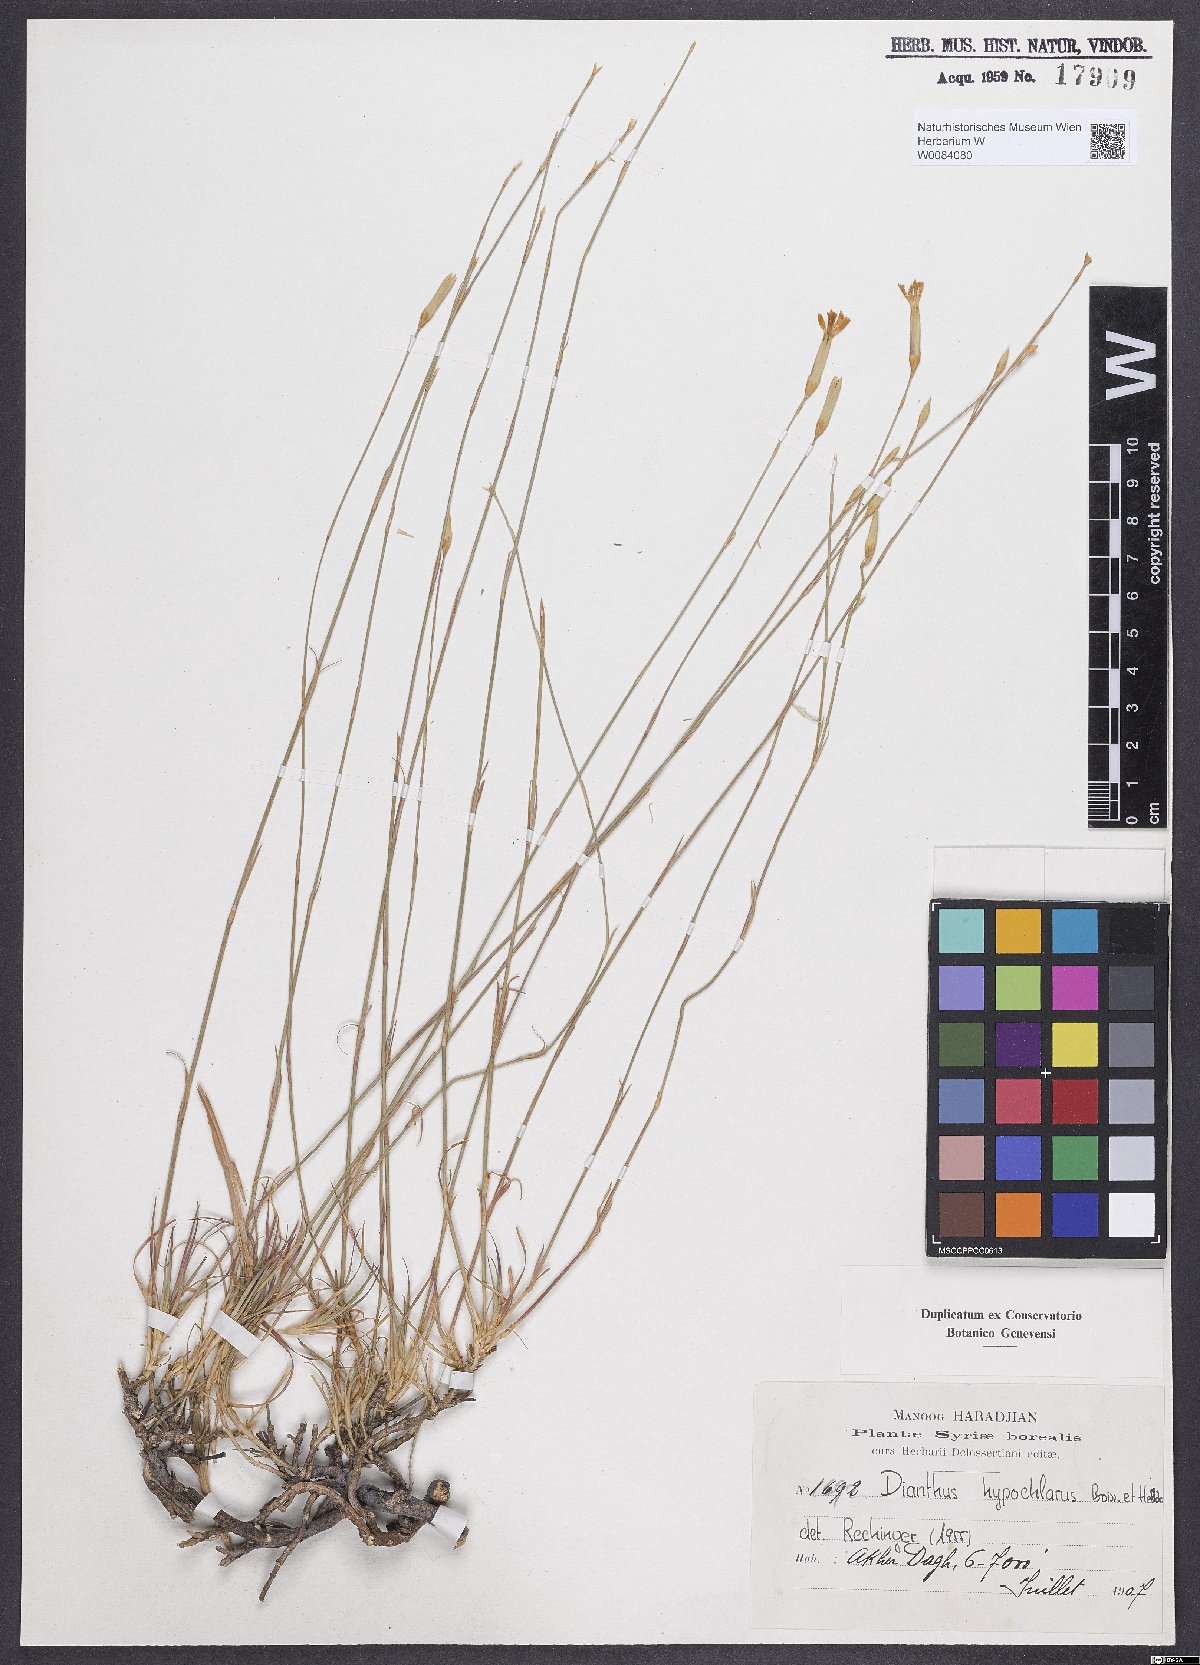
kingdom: Plantae
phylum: Tracheophyta
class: Magnoliopsida
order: Caryophyllales
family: Caryophyllaceae
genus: Dianthus
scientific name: Dianthus zonatus
